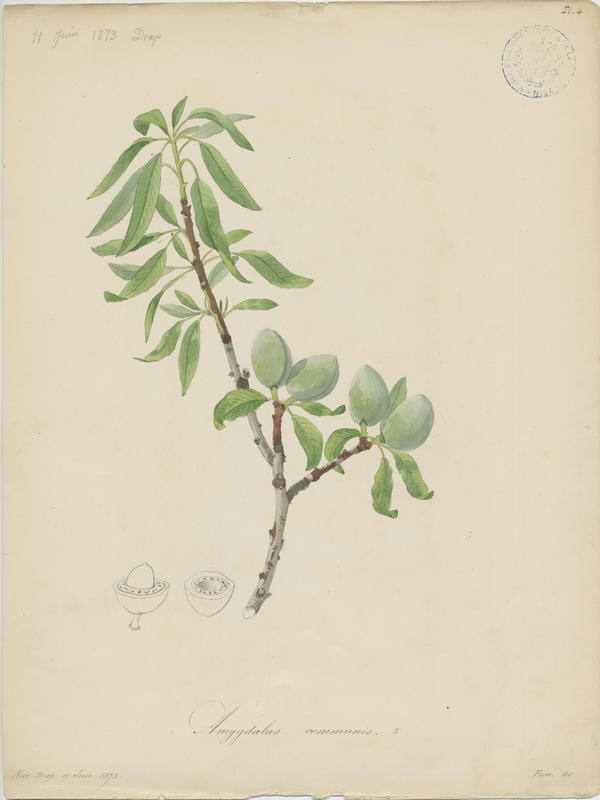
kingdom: Plantae
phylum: Tracheophyta
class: Magnoliopsida
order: Rosales
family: Rosaceae
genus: Prunus
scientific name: Prunus amygdalus
